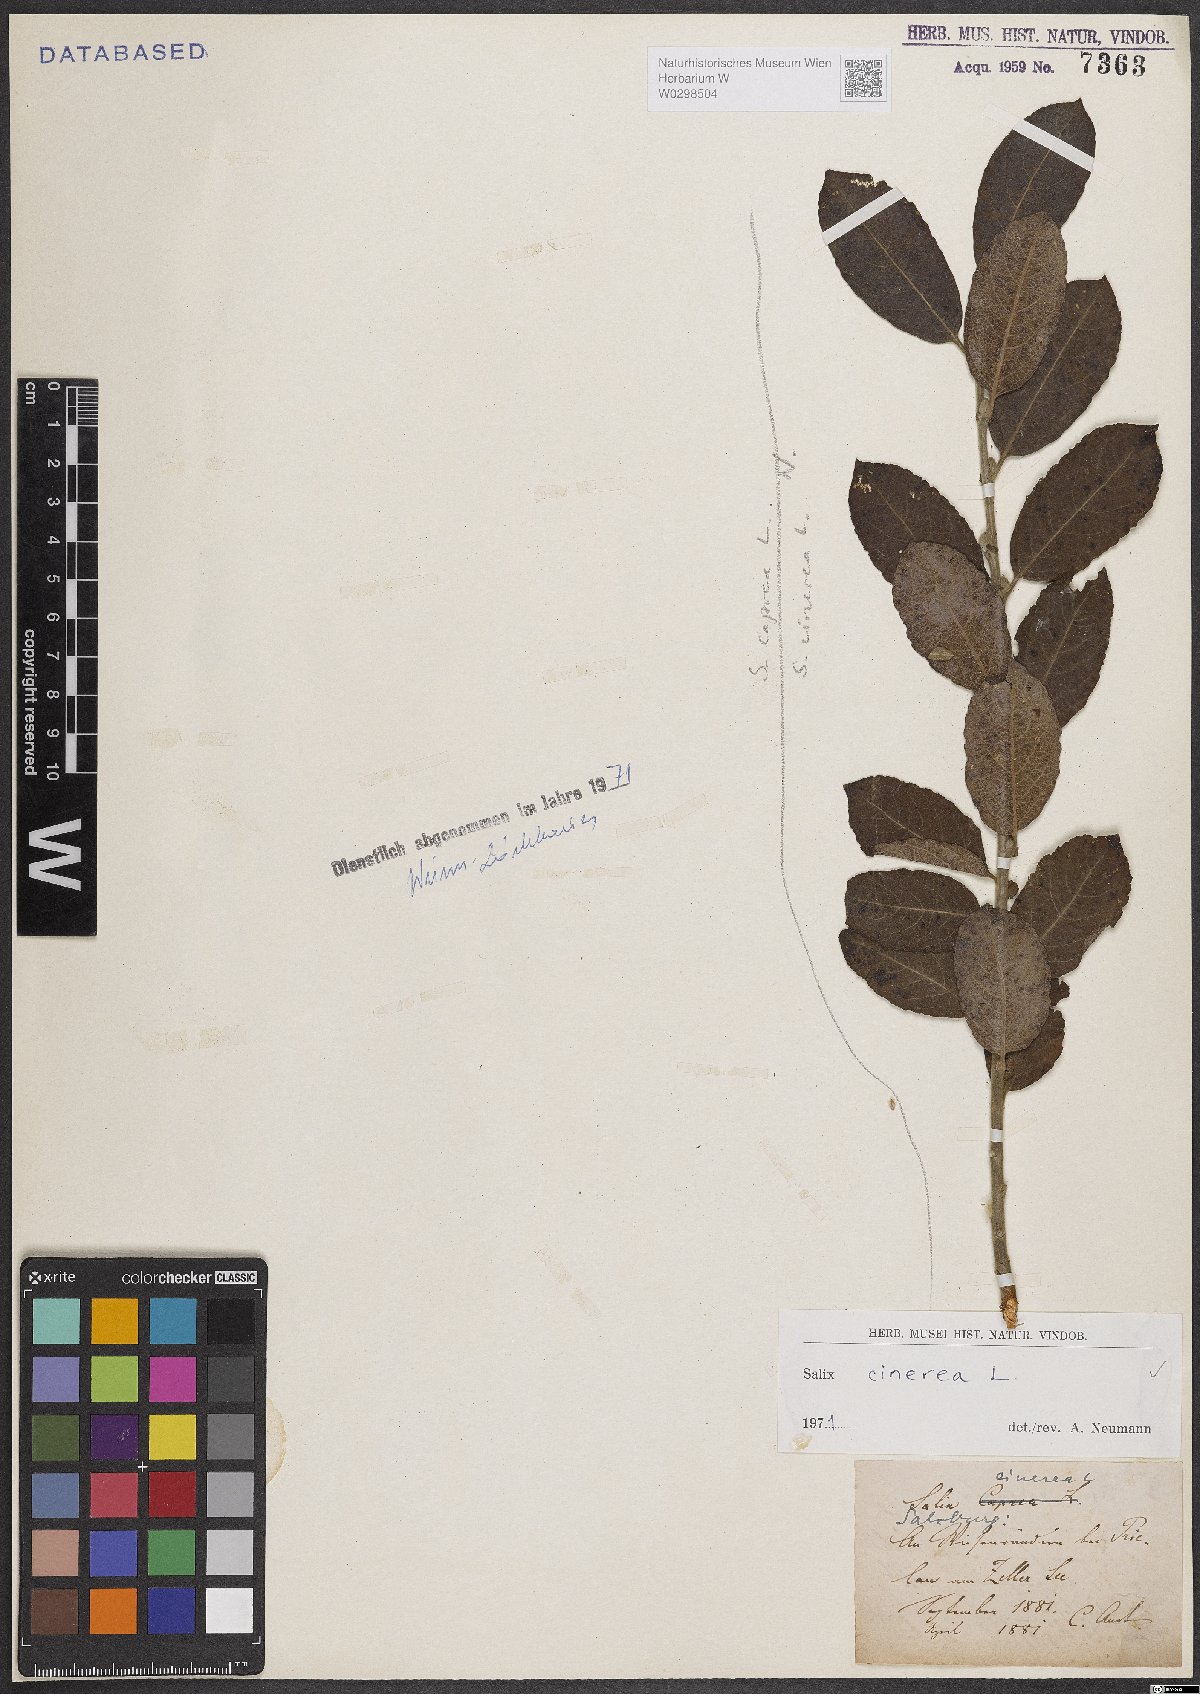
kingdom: Plantae
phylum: Tracheophyta
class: Magnoliopsida
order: Malpighiales
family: Salicaceae
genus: Salix
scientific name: Salix cinerea
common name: Common sallow
